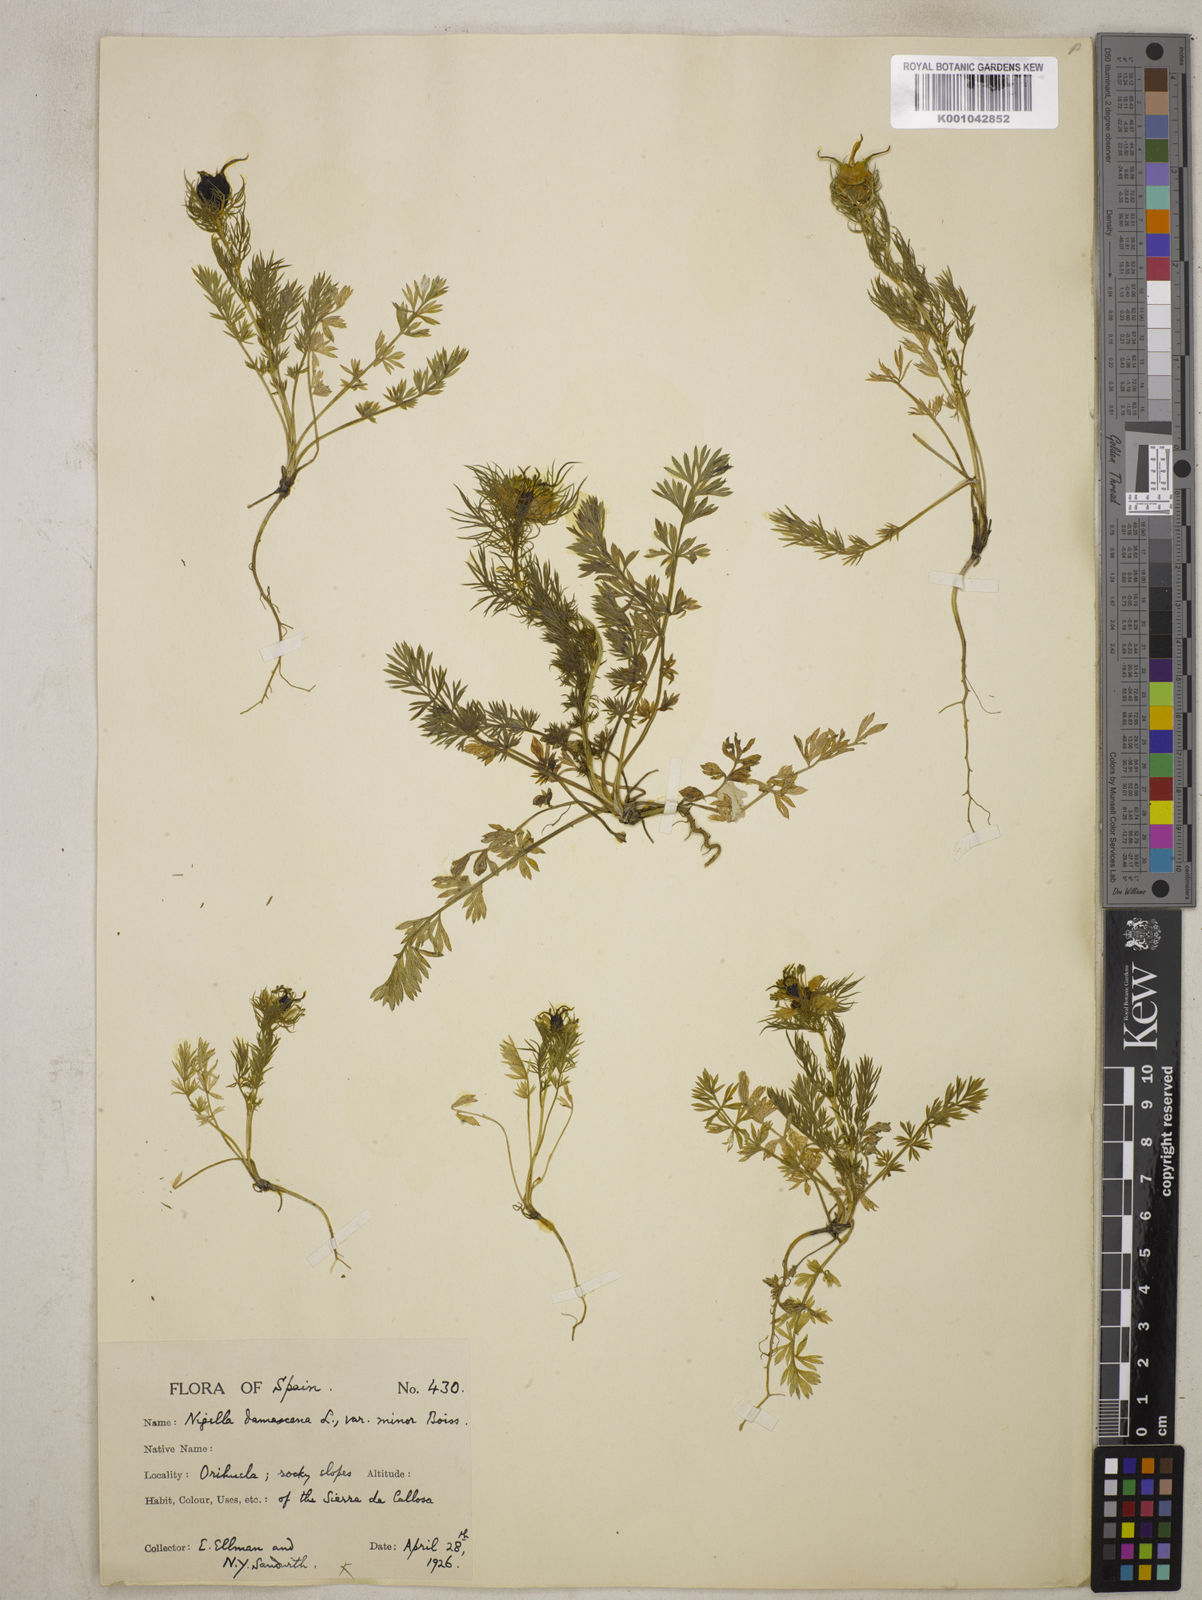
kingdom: Plantae
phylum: Tracheophyta
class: Magnoliopsida
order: Ranunculales
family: Ranunculaceae
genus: Nigella
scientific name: Nigella damascena
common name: Love-in-a-mist
